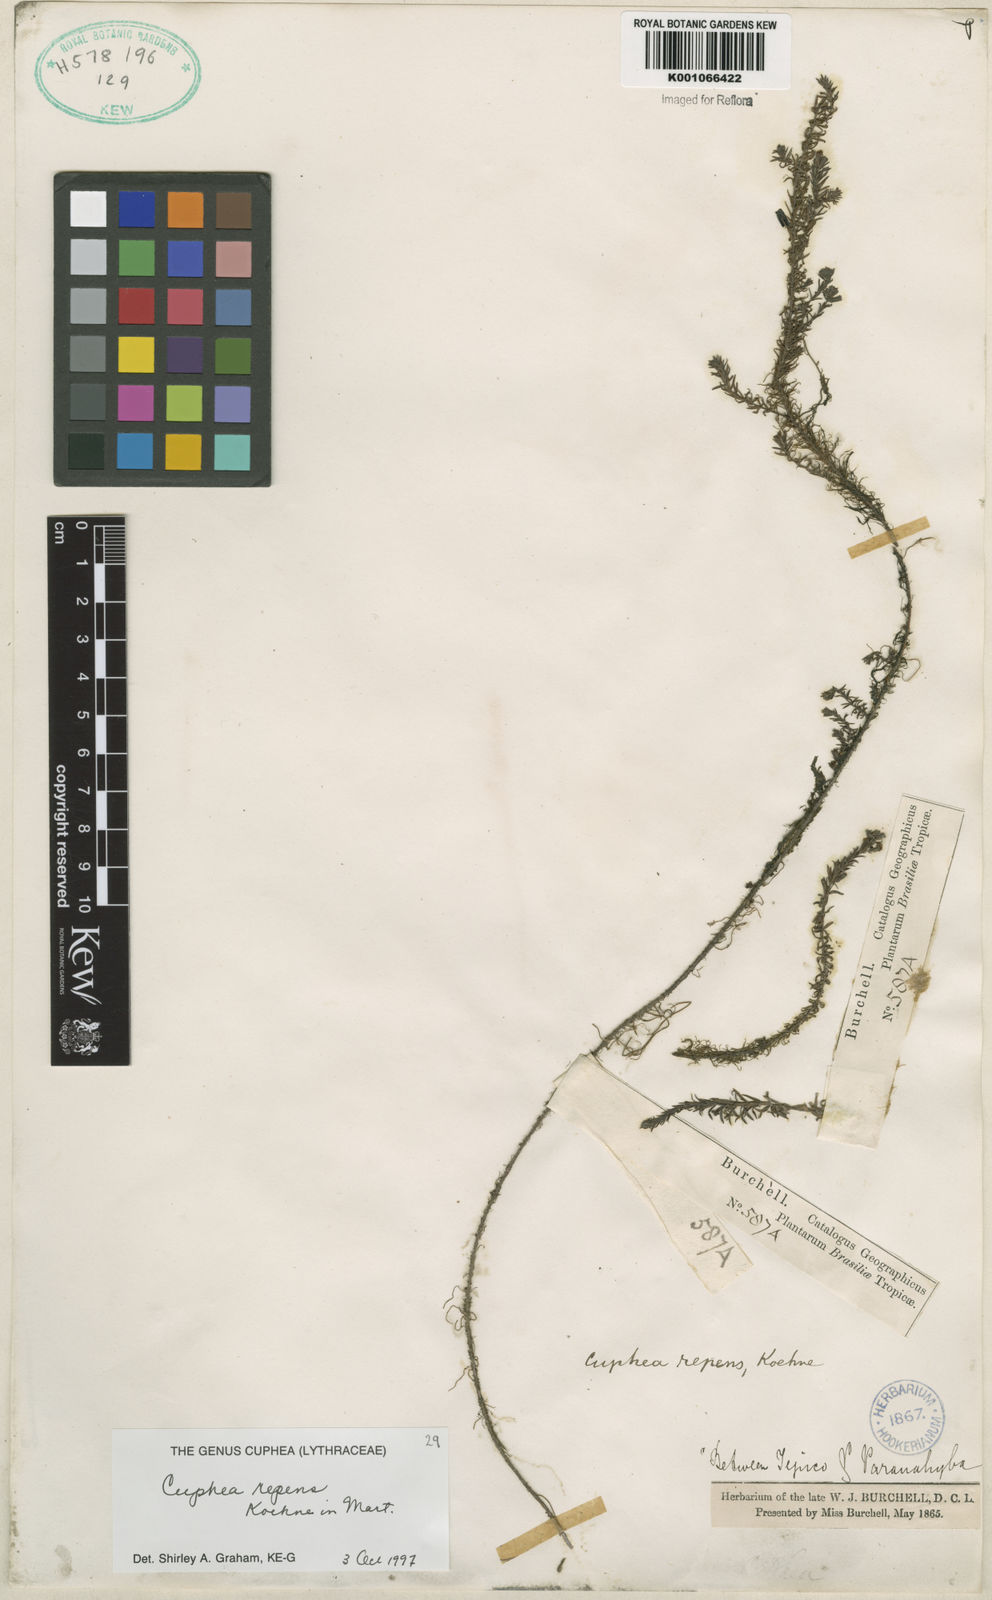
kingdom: Plantae
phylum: Tracheophyta
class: Magnoliopsida
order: Myrtales
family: Lythraceae
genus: Cuphea
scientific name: Cuphea repens
